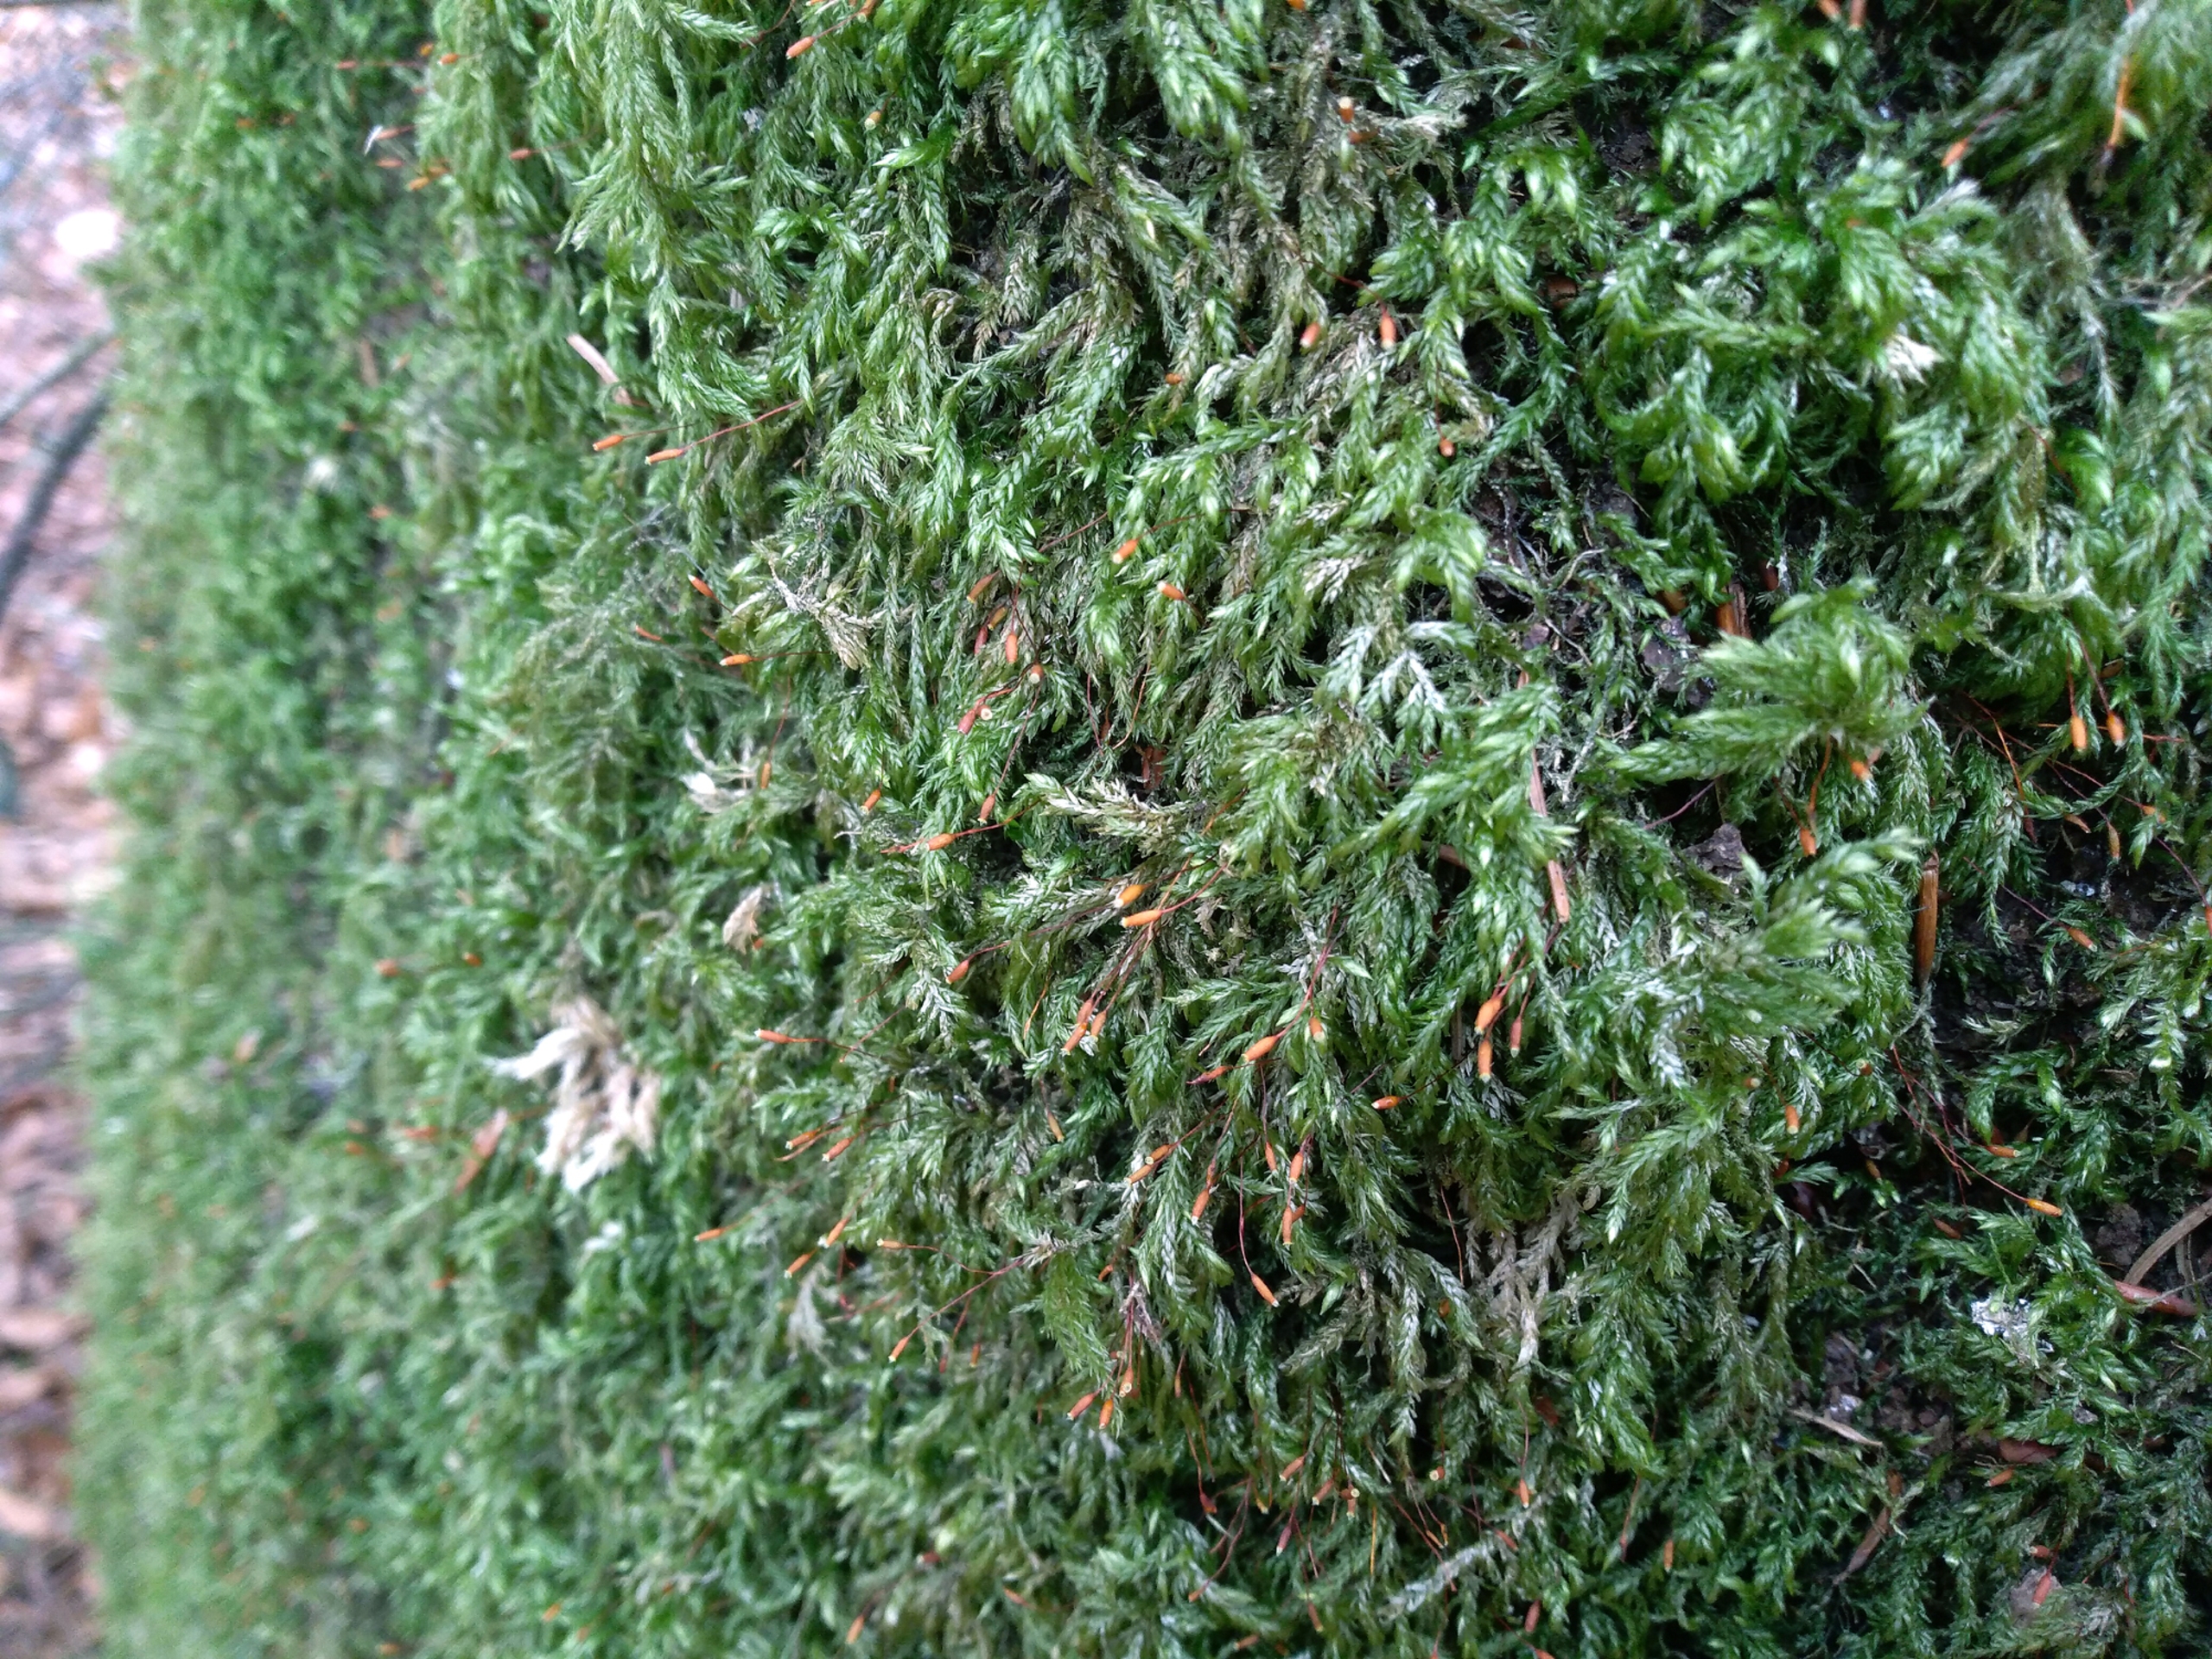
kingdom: Plantae
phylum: Bryophyta
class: Bryopsida
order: Hypnales
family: Lembophyllaceae
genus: Isothecium
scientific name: Isothecium alopecuroides
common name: Stor stammemos
